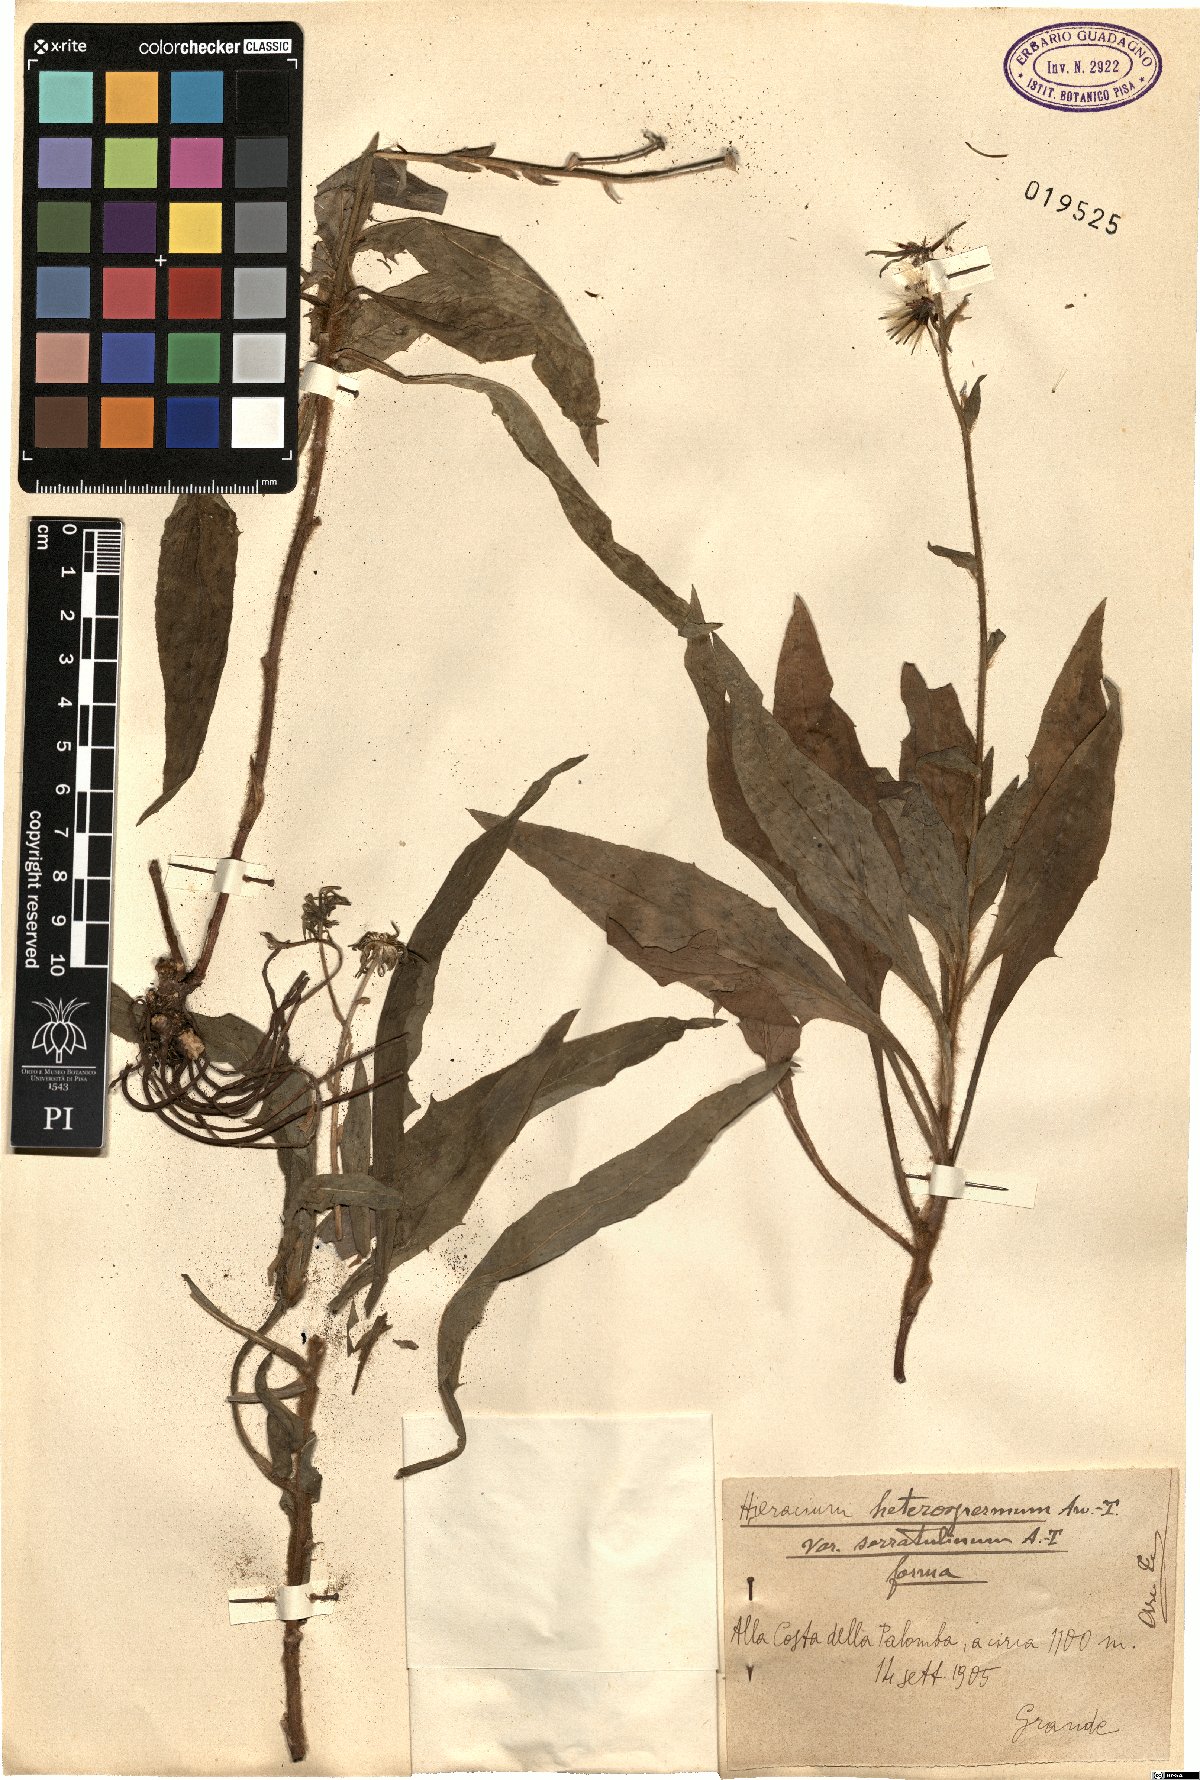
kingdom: Plantae
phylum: Tracheophyta
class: Magnoliopsida
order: Asterales
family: Asteraceae
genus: Hieracium
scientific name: Hieracium racemosum
